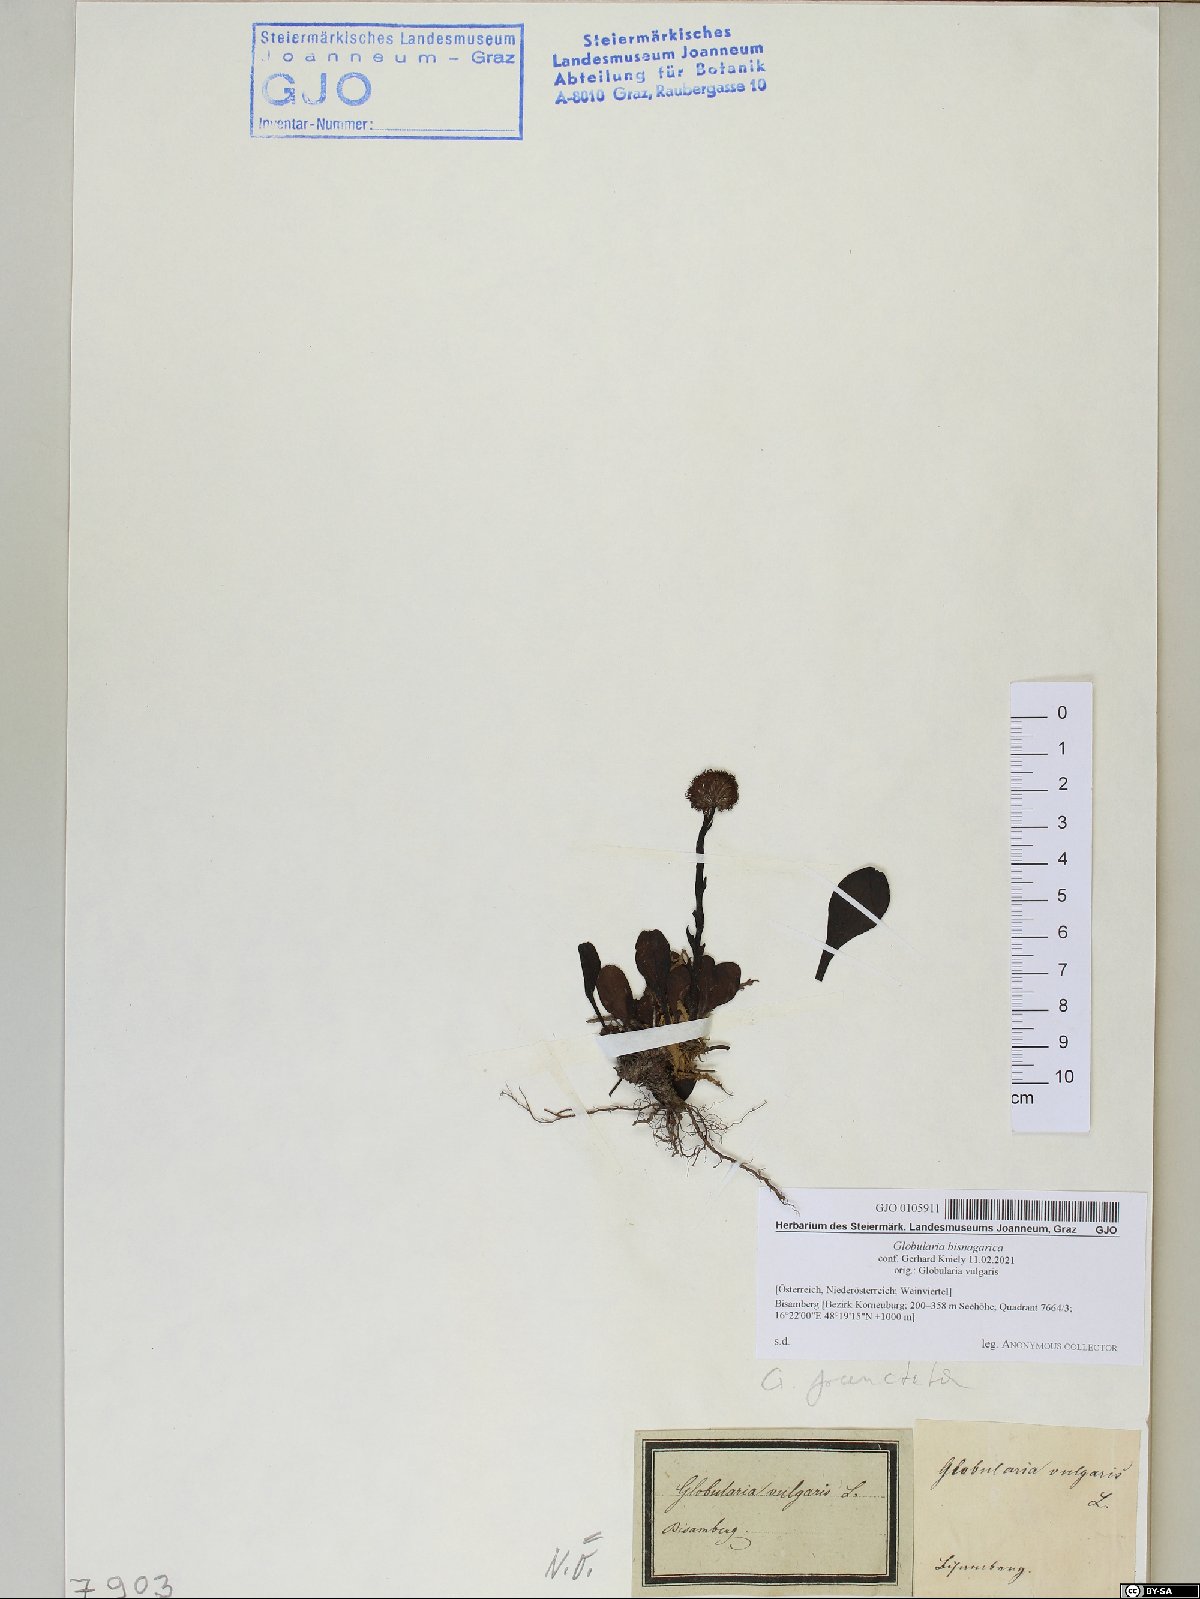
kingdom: Plantae
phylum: Tracheophyta
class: Magnoliopsida
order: Lamiales
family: Plantaginaceae
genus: Globularia
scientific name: Globularia bisnagarica
